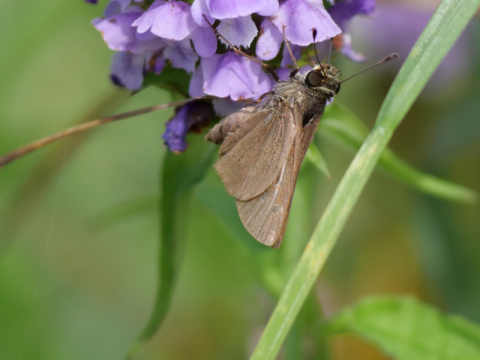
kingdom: Animalia
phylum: Arthropoda
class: Insecta
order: Lepidoptera
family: Hesperiidae
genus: Euphyes
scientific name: Euphyes vestris
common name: Dun Skipper
